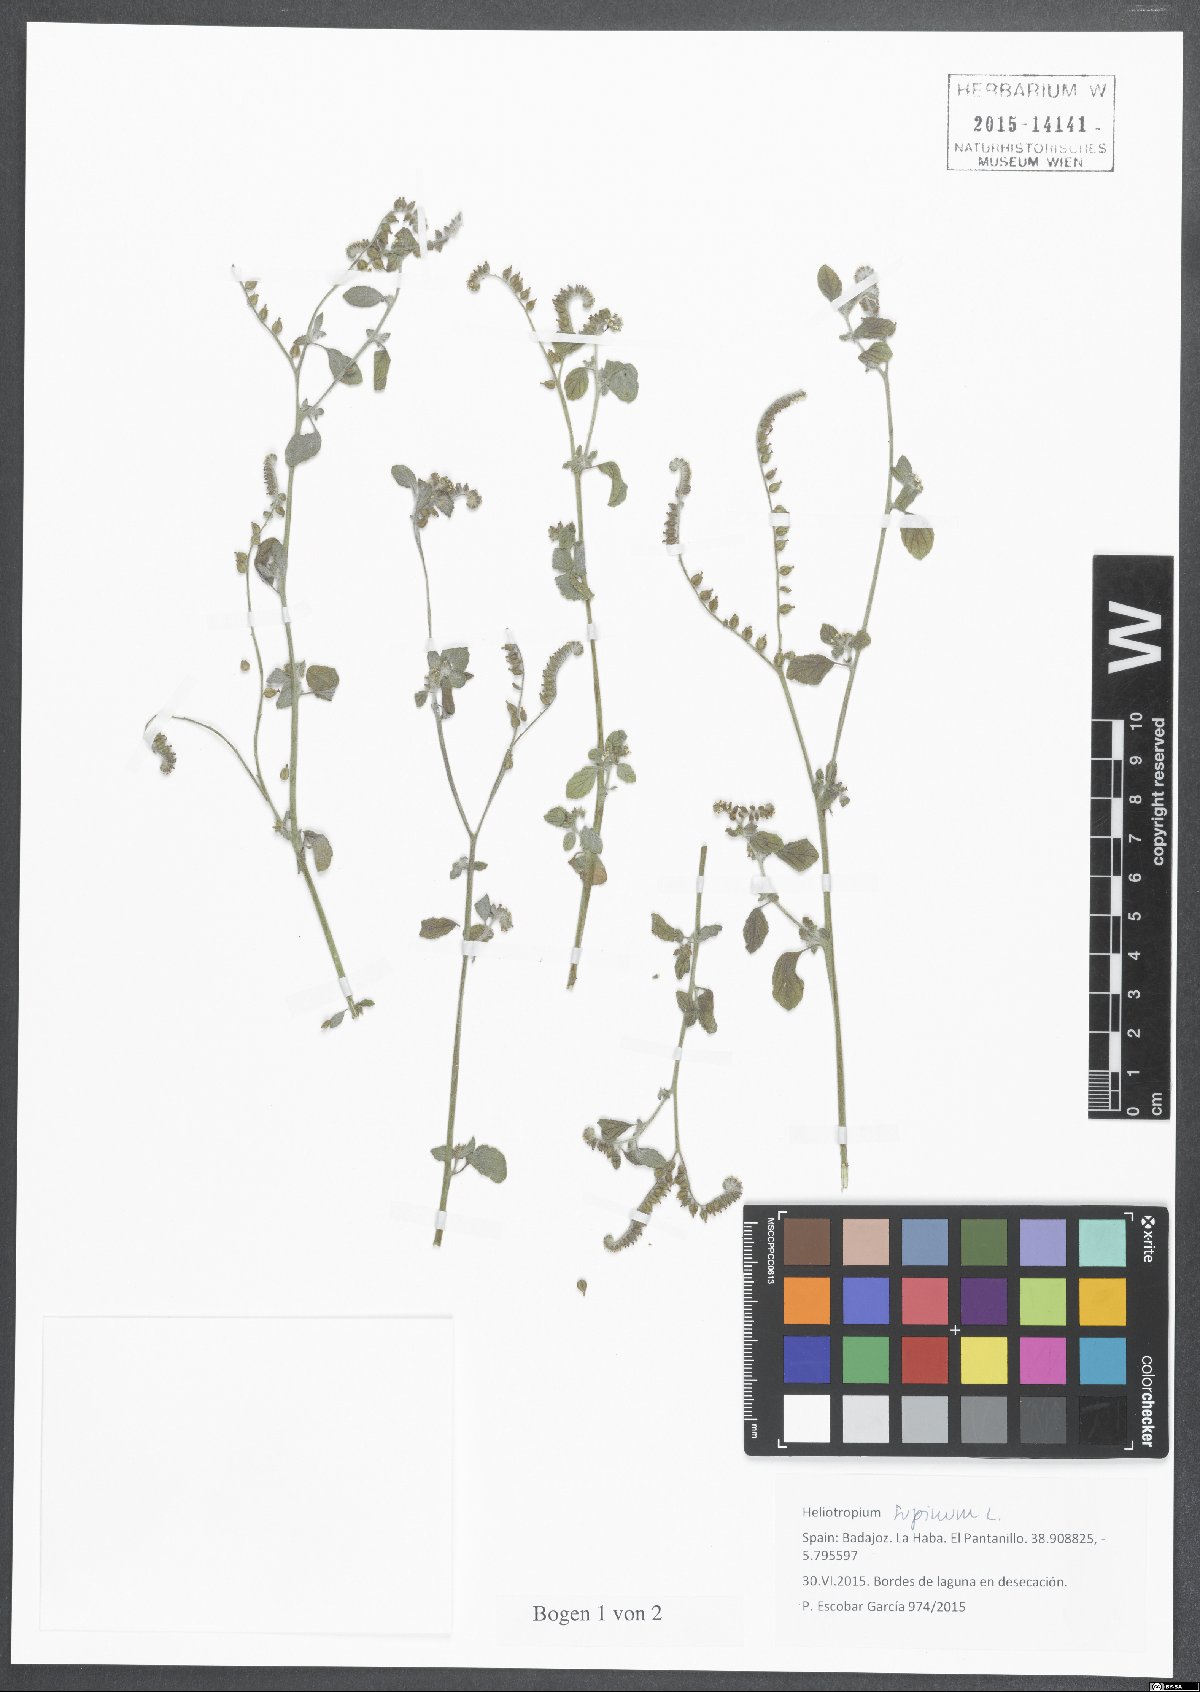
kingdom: Plantae
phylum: Tracheophyta
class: Magnoliopsida
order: Boraginales
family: Heliotropiaceae
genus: Heliotropium
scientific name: Heliotropium supinum
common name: Dwarf heliotrope
